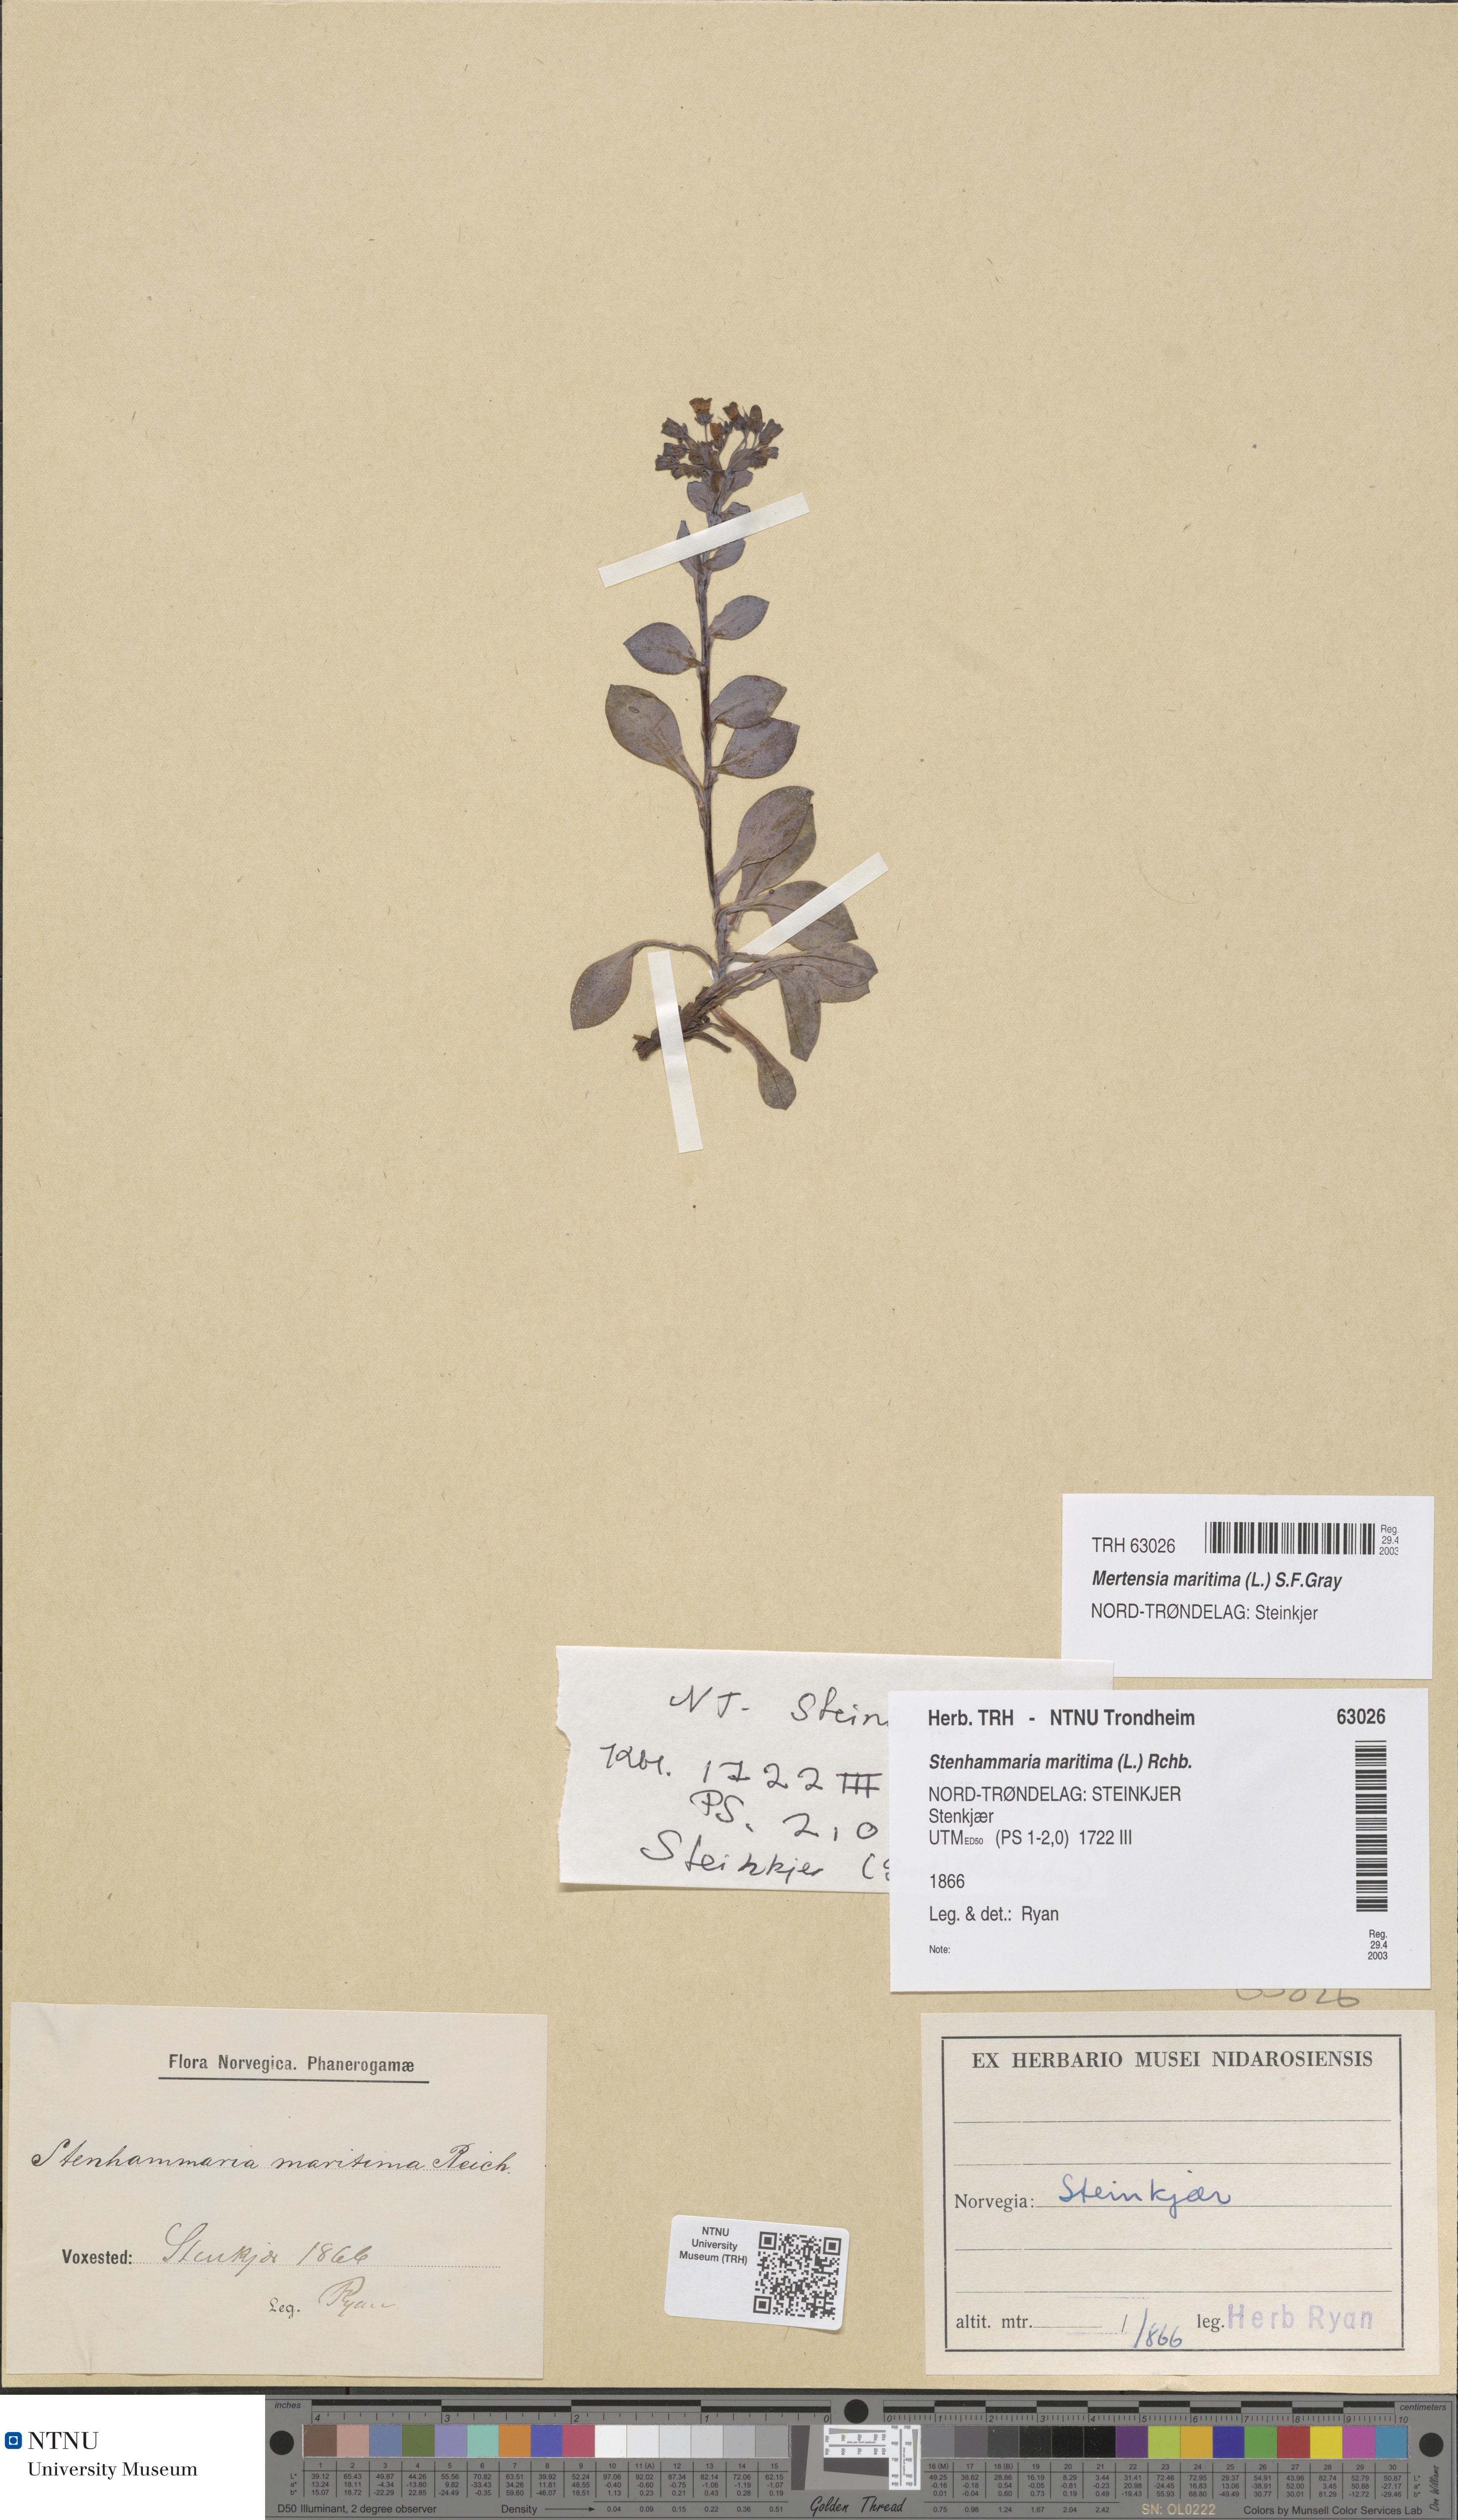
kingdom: Plantae
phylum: Tracheophyta
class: Magnoliopsida
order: Boraginales
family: Boraginaceae
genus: Mertensia
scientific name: Mertensia maritima
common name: Oysterplant
